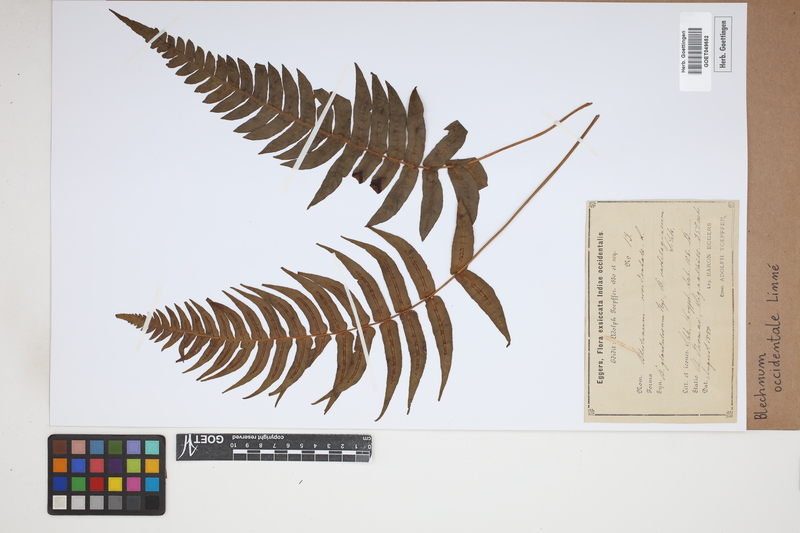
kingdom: Plantae
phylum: Tracheophyta
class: Polypodiopsida
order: Polypodiales
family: Blechnaceae
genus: Blechnum
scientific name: Blechnum occidentale
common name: Hammock fern
